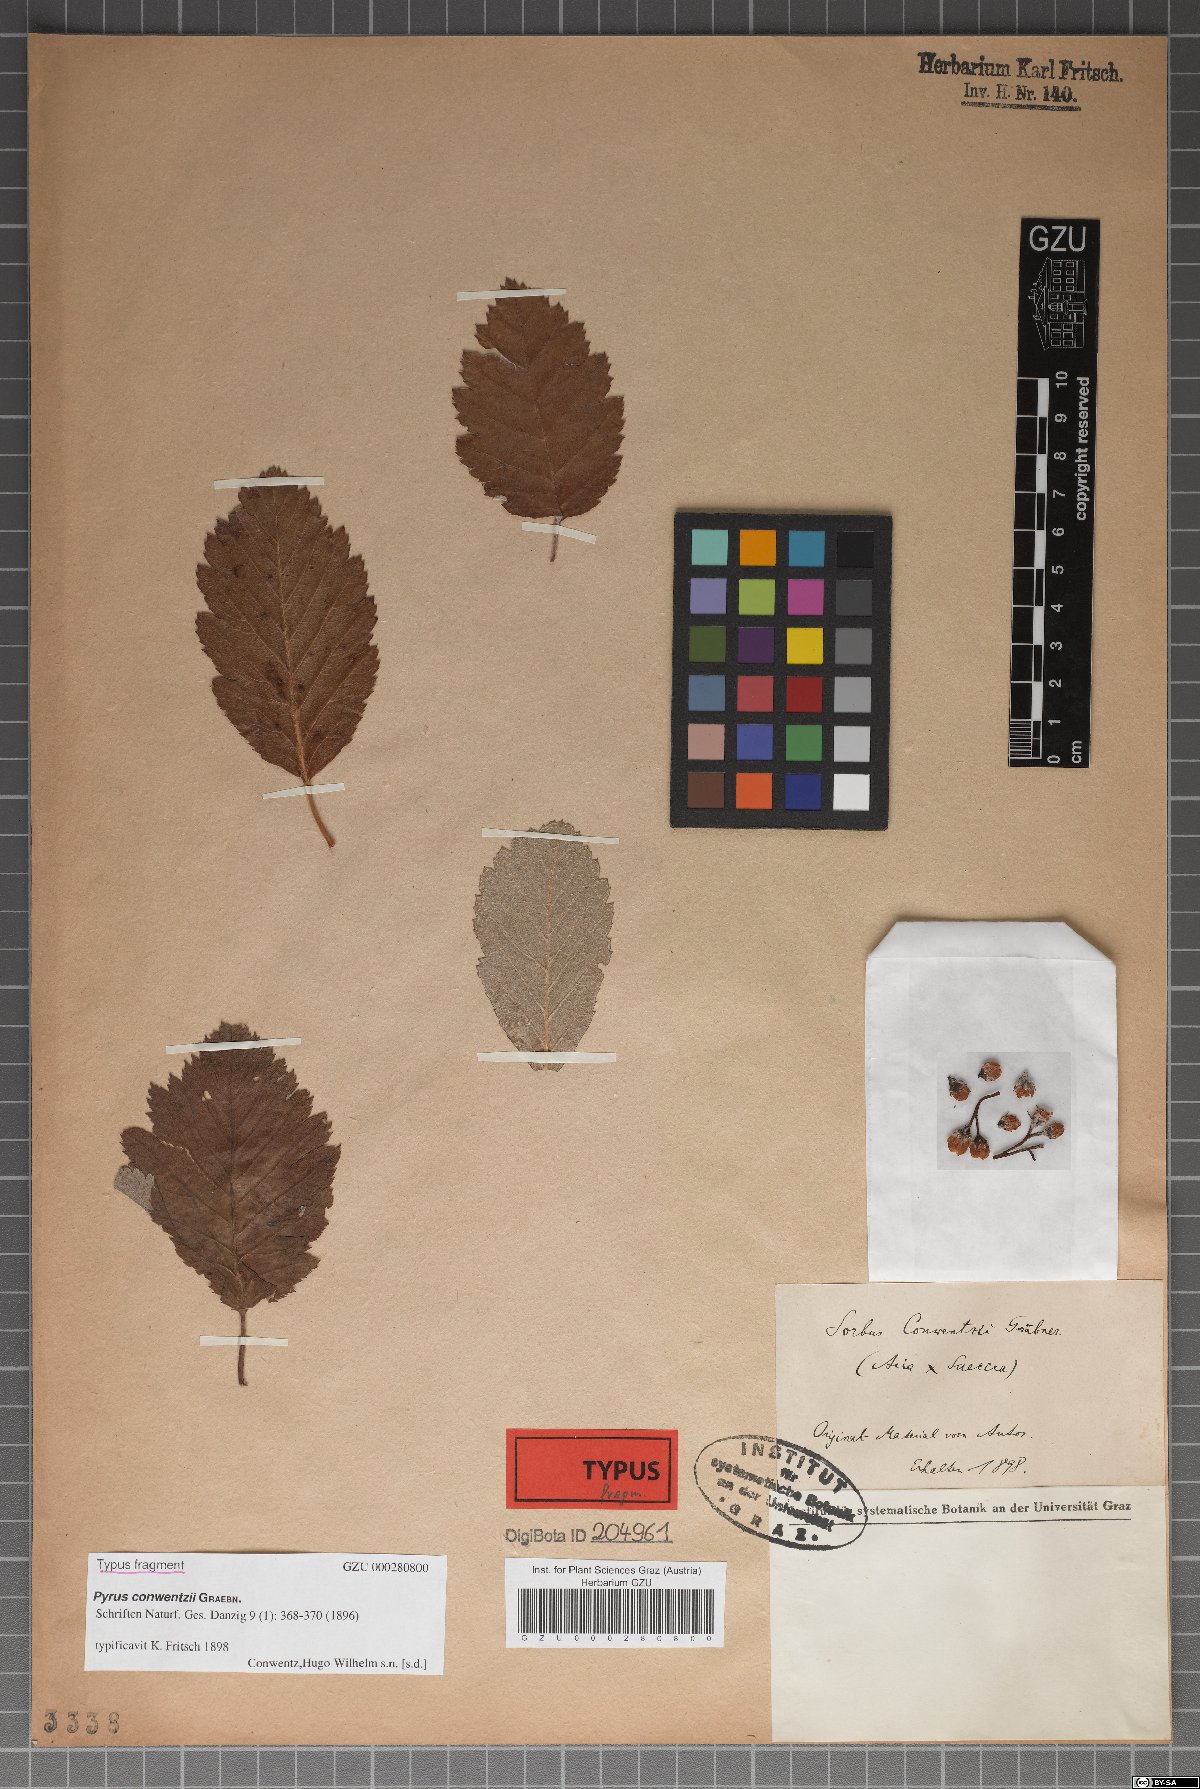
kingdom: Plantae
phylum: Tracheophyta
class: Magnoliopsida
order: Rosales
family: Rosaceae
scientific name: Rosaceae
